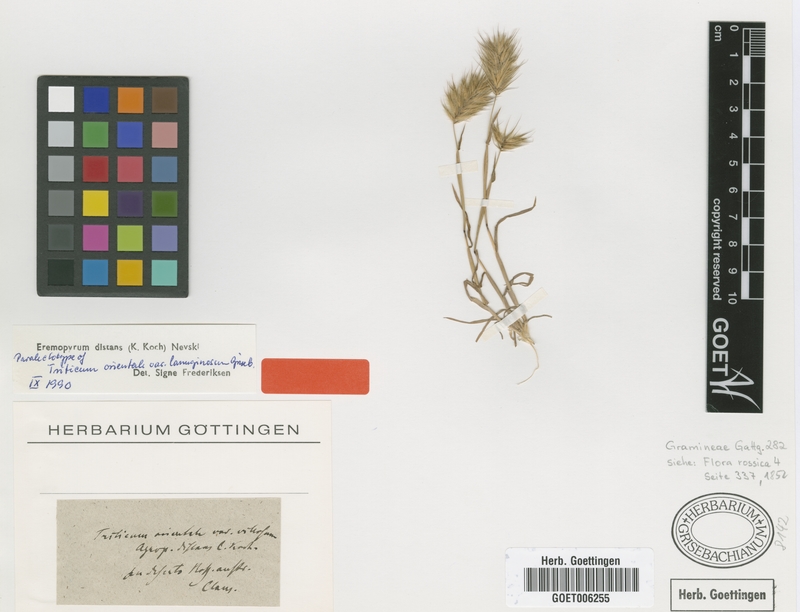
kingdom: Plantae
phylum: Tracheophyta
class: Liliopsida
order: Poales
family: Poaceae
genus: Eremopyrum
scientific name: Eremopyrum distans
